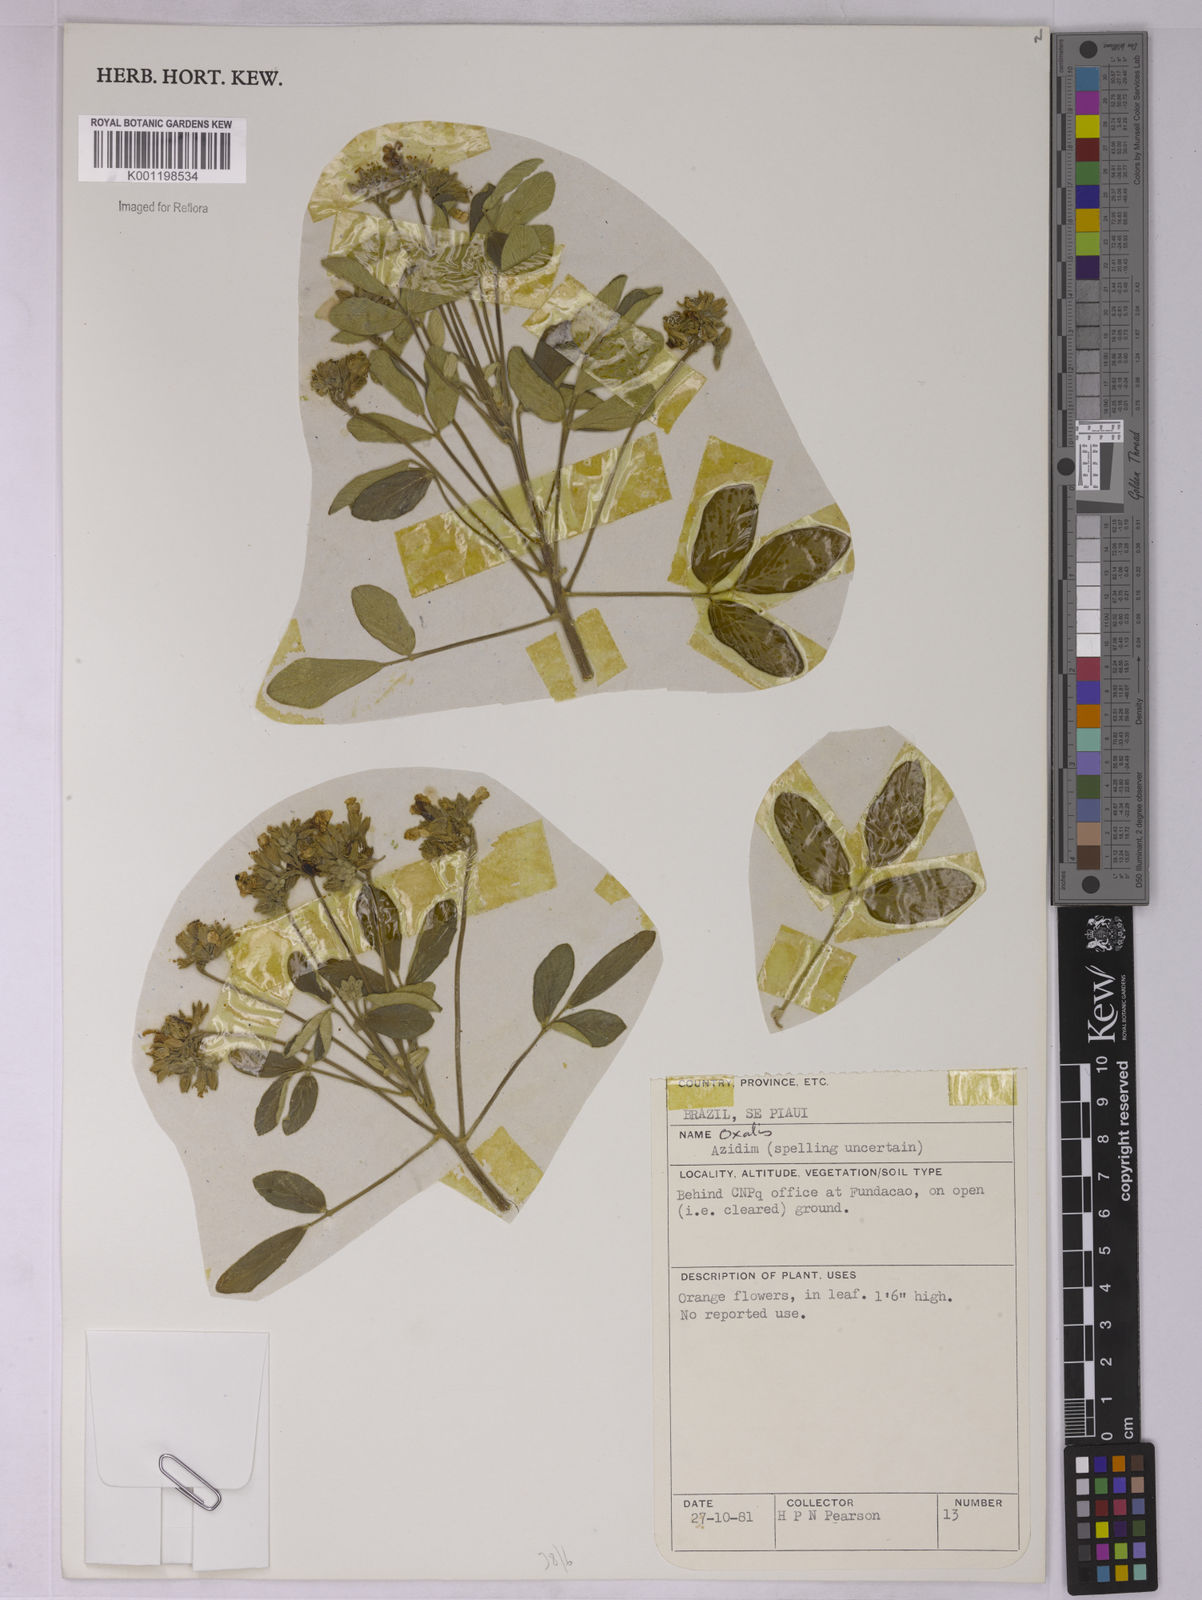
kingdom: Plantae
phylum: Tracheophyta
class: Magnoliopsida
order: Oxalidales
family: Oxalidaceae
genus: Oxalis
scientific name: Oxalis
